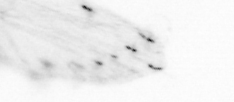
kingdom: Animalia
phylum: Chaetognatha
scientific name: Chaetognatha
